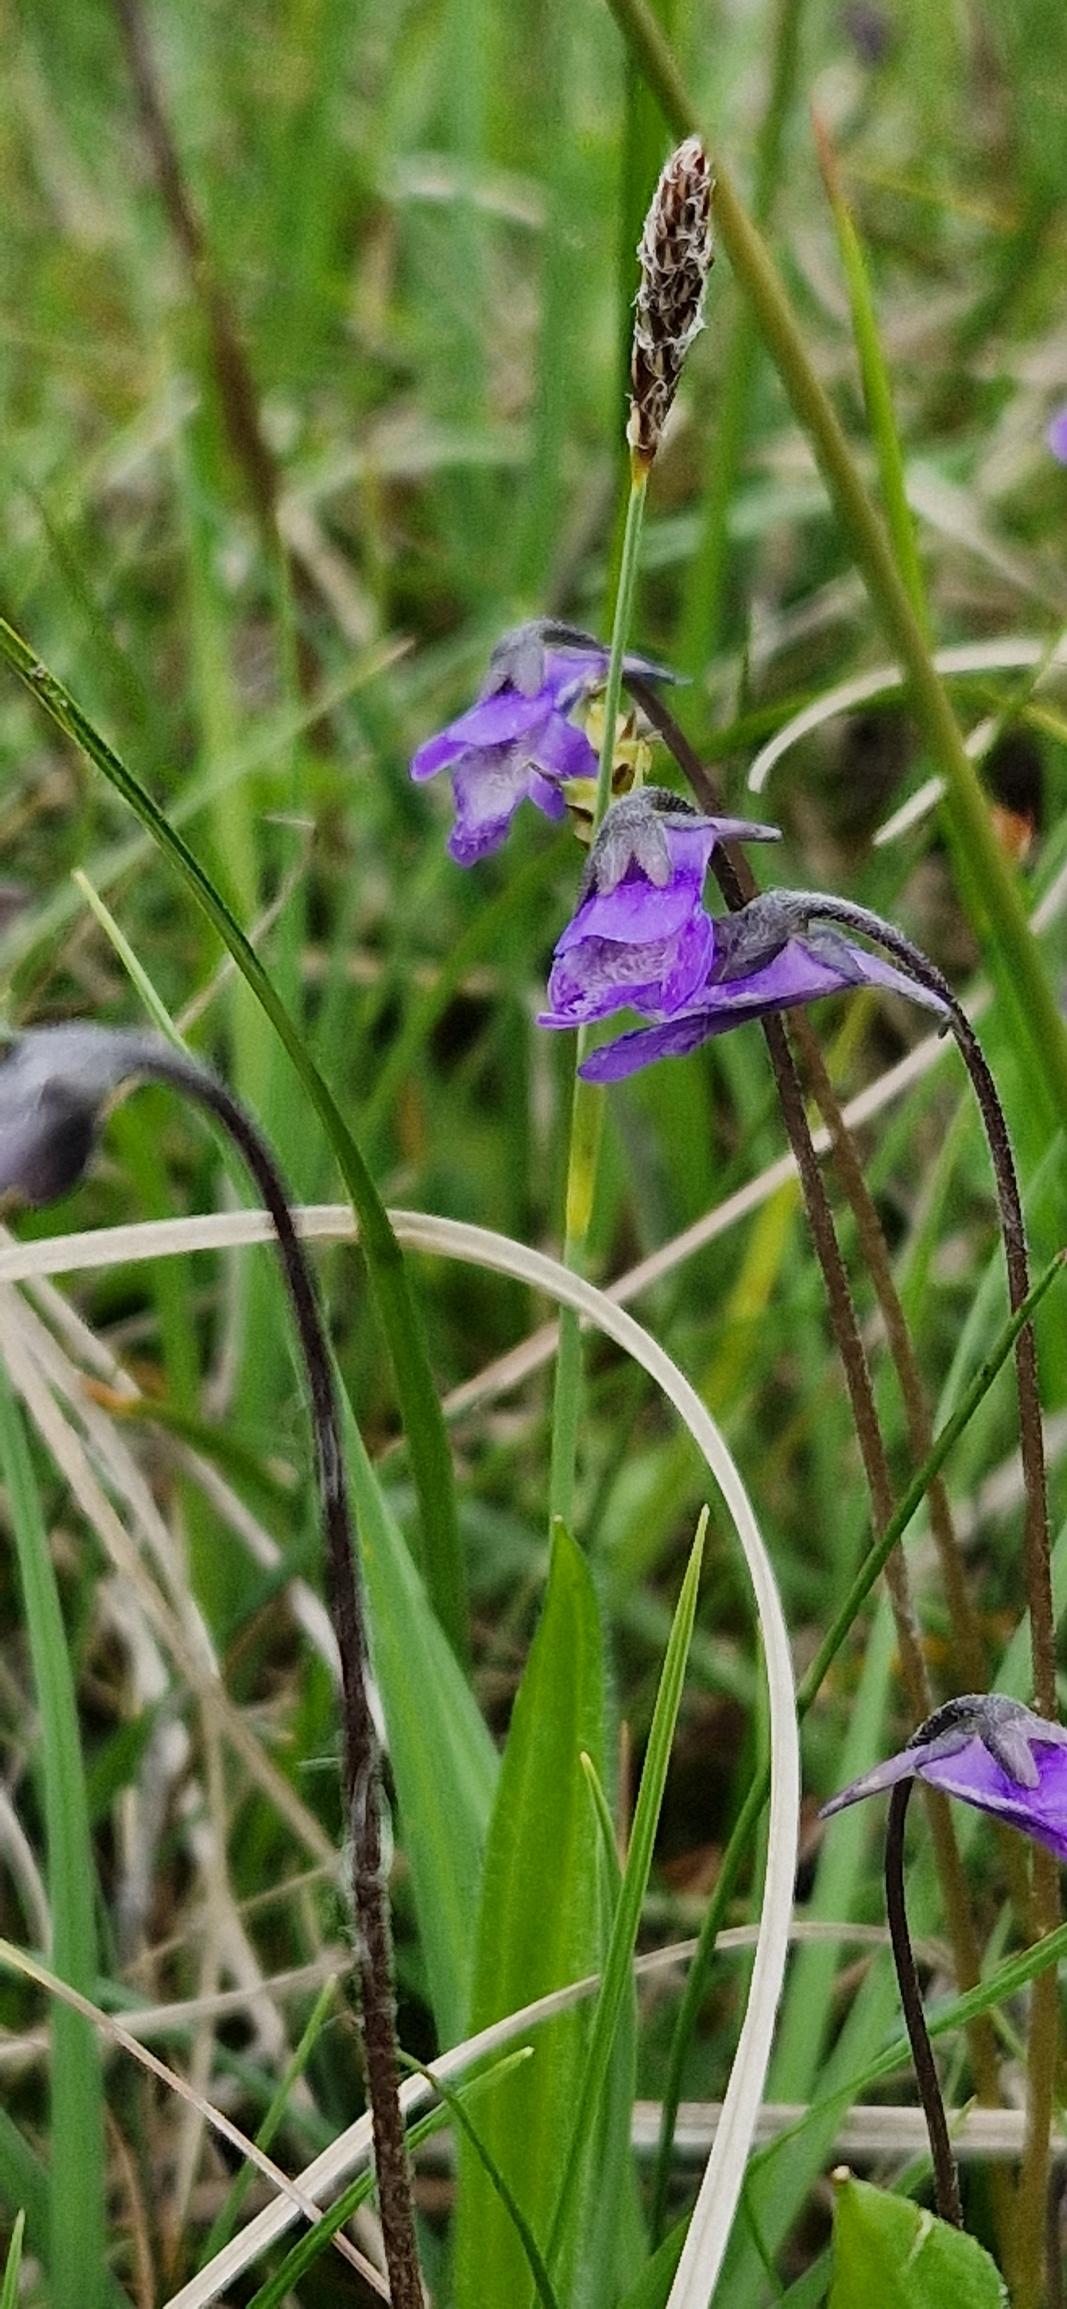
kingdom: Plantae
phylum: Tracheophyta
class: Magnoliopsida
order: Lamiales
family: Lentibulariaceae
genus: Pinguicula
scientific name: Pinguicula vulgaris
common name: Vibefedt
